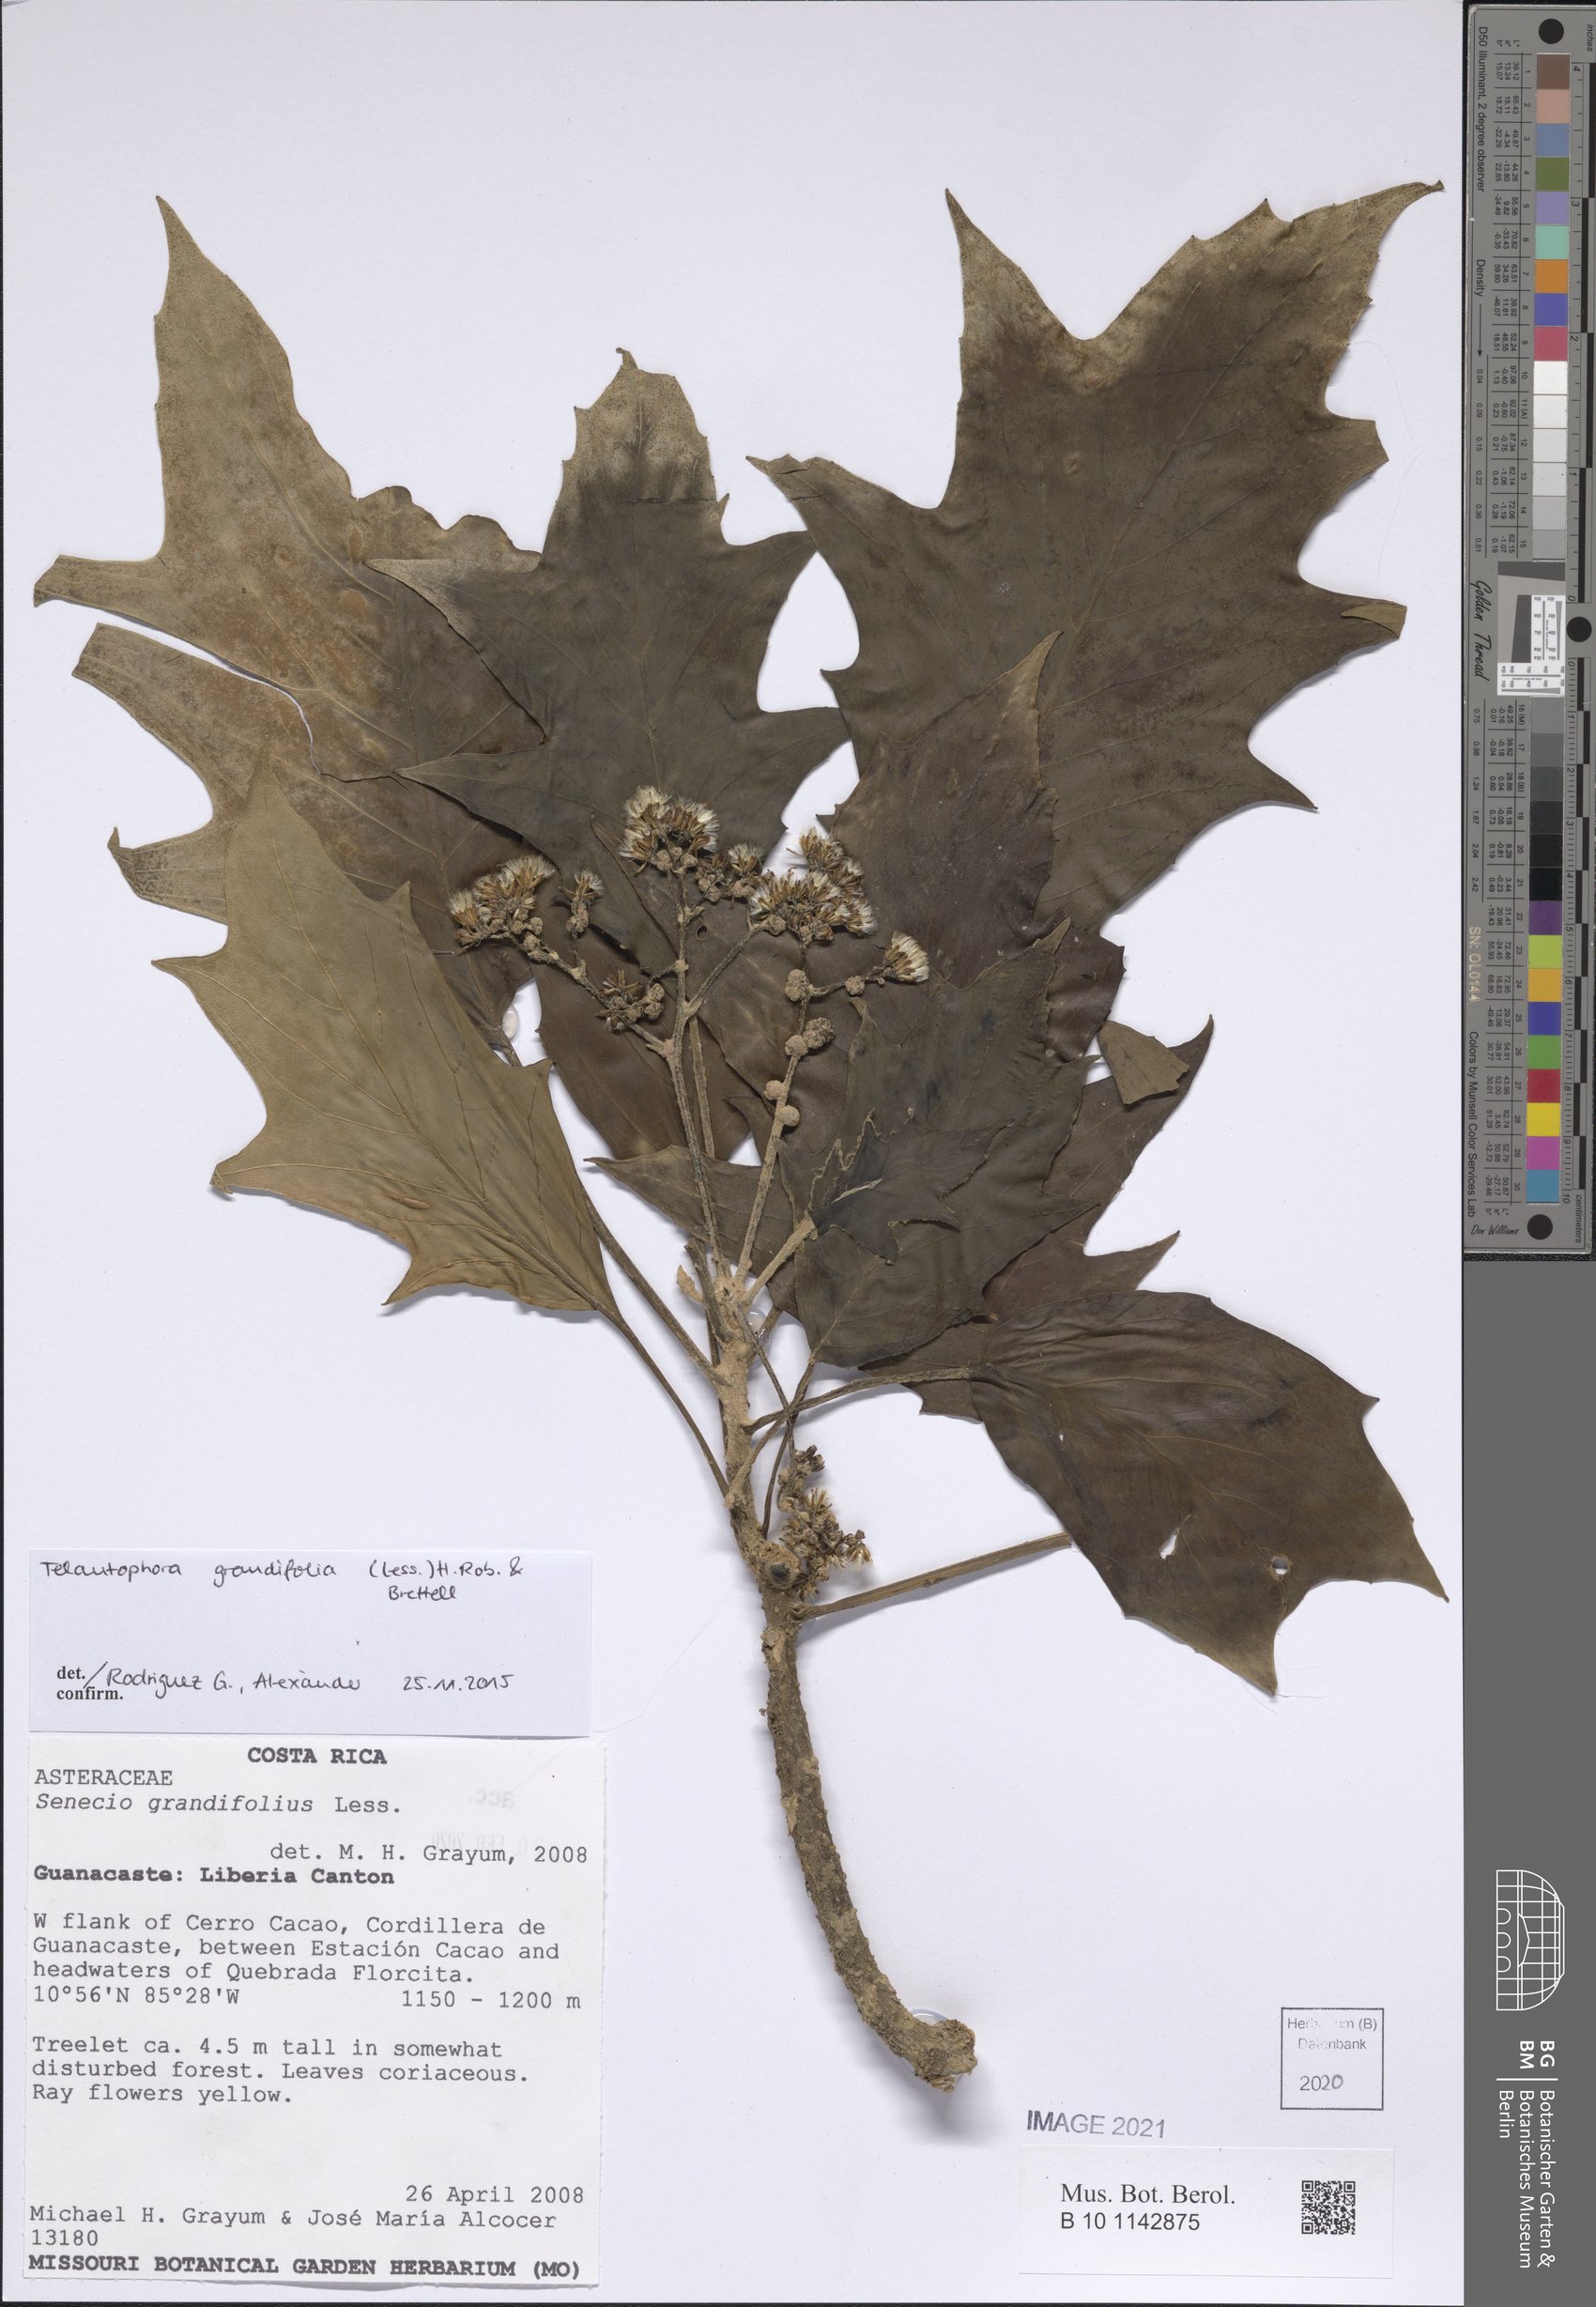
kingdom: Plantae
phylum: Tracheophyta
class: Magnoliopsida
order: Asterales
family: Asteraceae
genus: Telanthophora
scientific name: Telanthophora grandifolia
